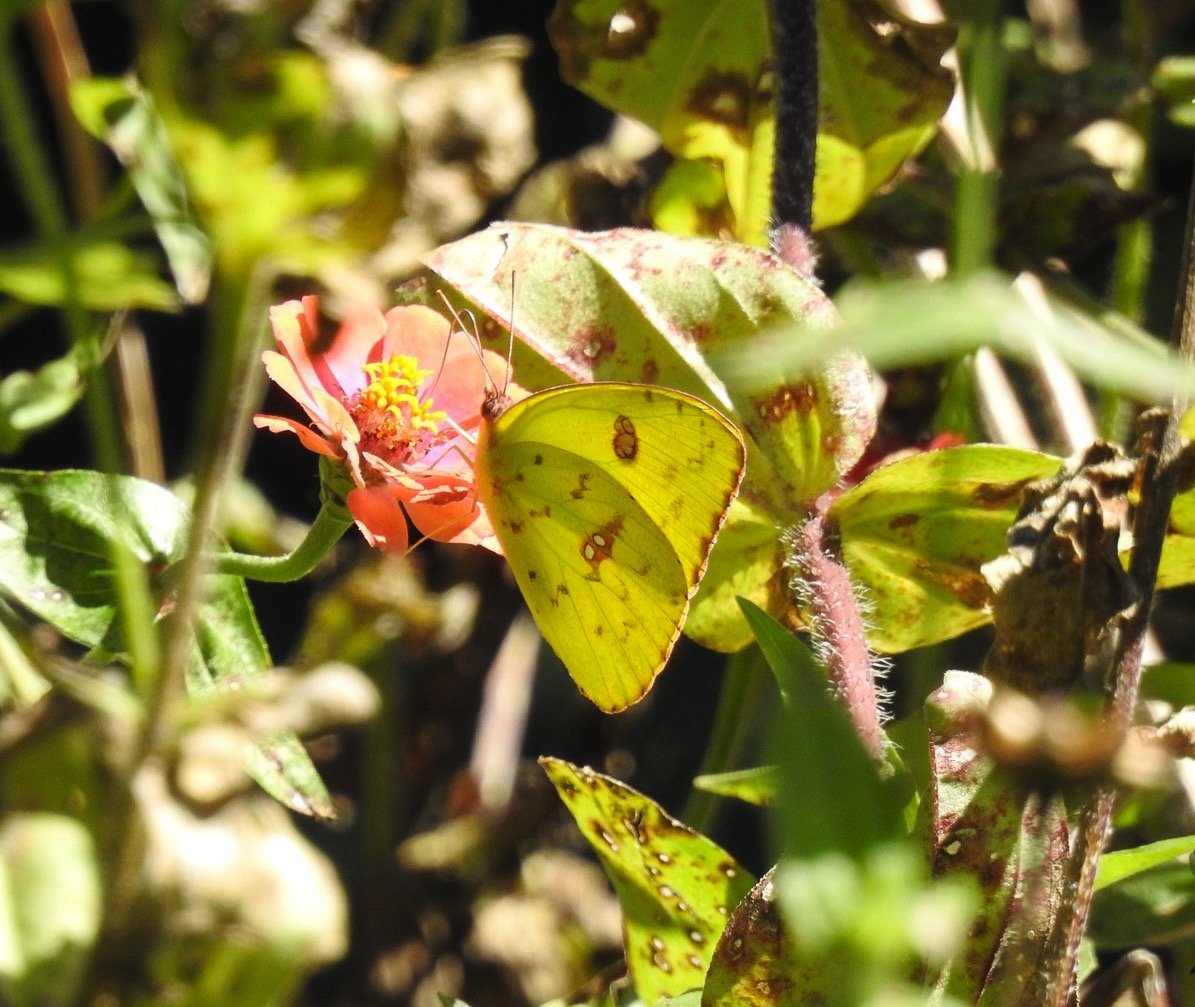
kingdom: Animalia
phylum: Arthropoda
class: Insecta
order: Lepidoptera
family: Pieridae
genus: Phoebis
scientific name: Phoebis sennae
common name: Cloudless Sulphur
